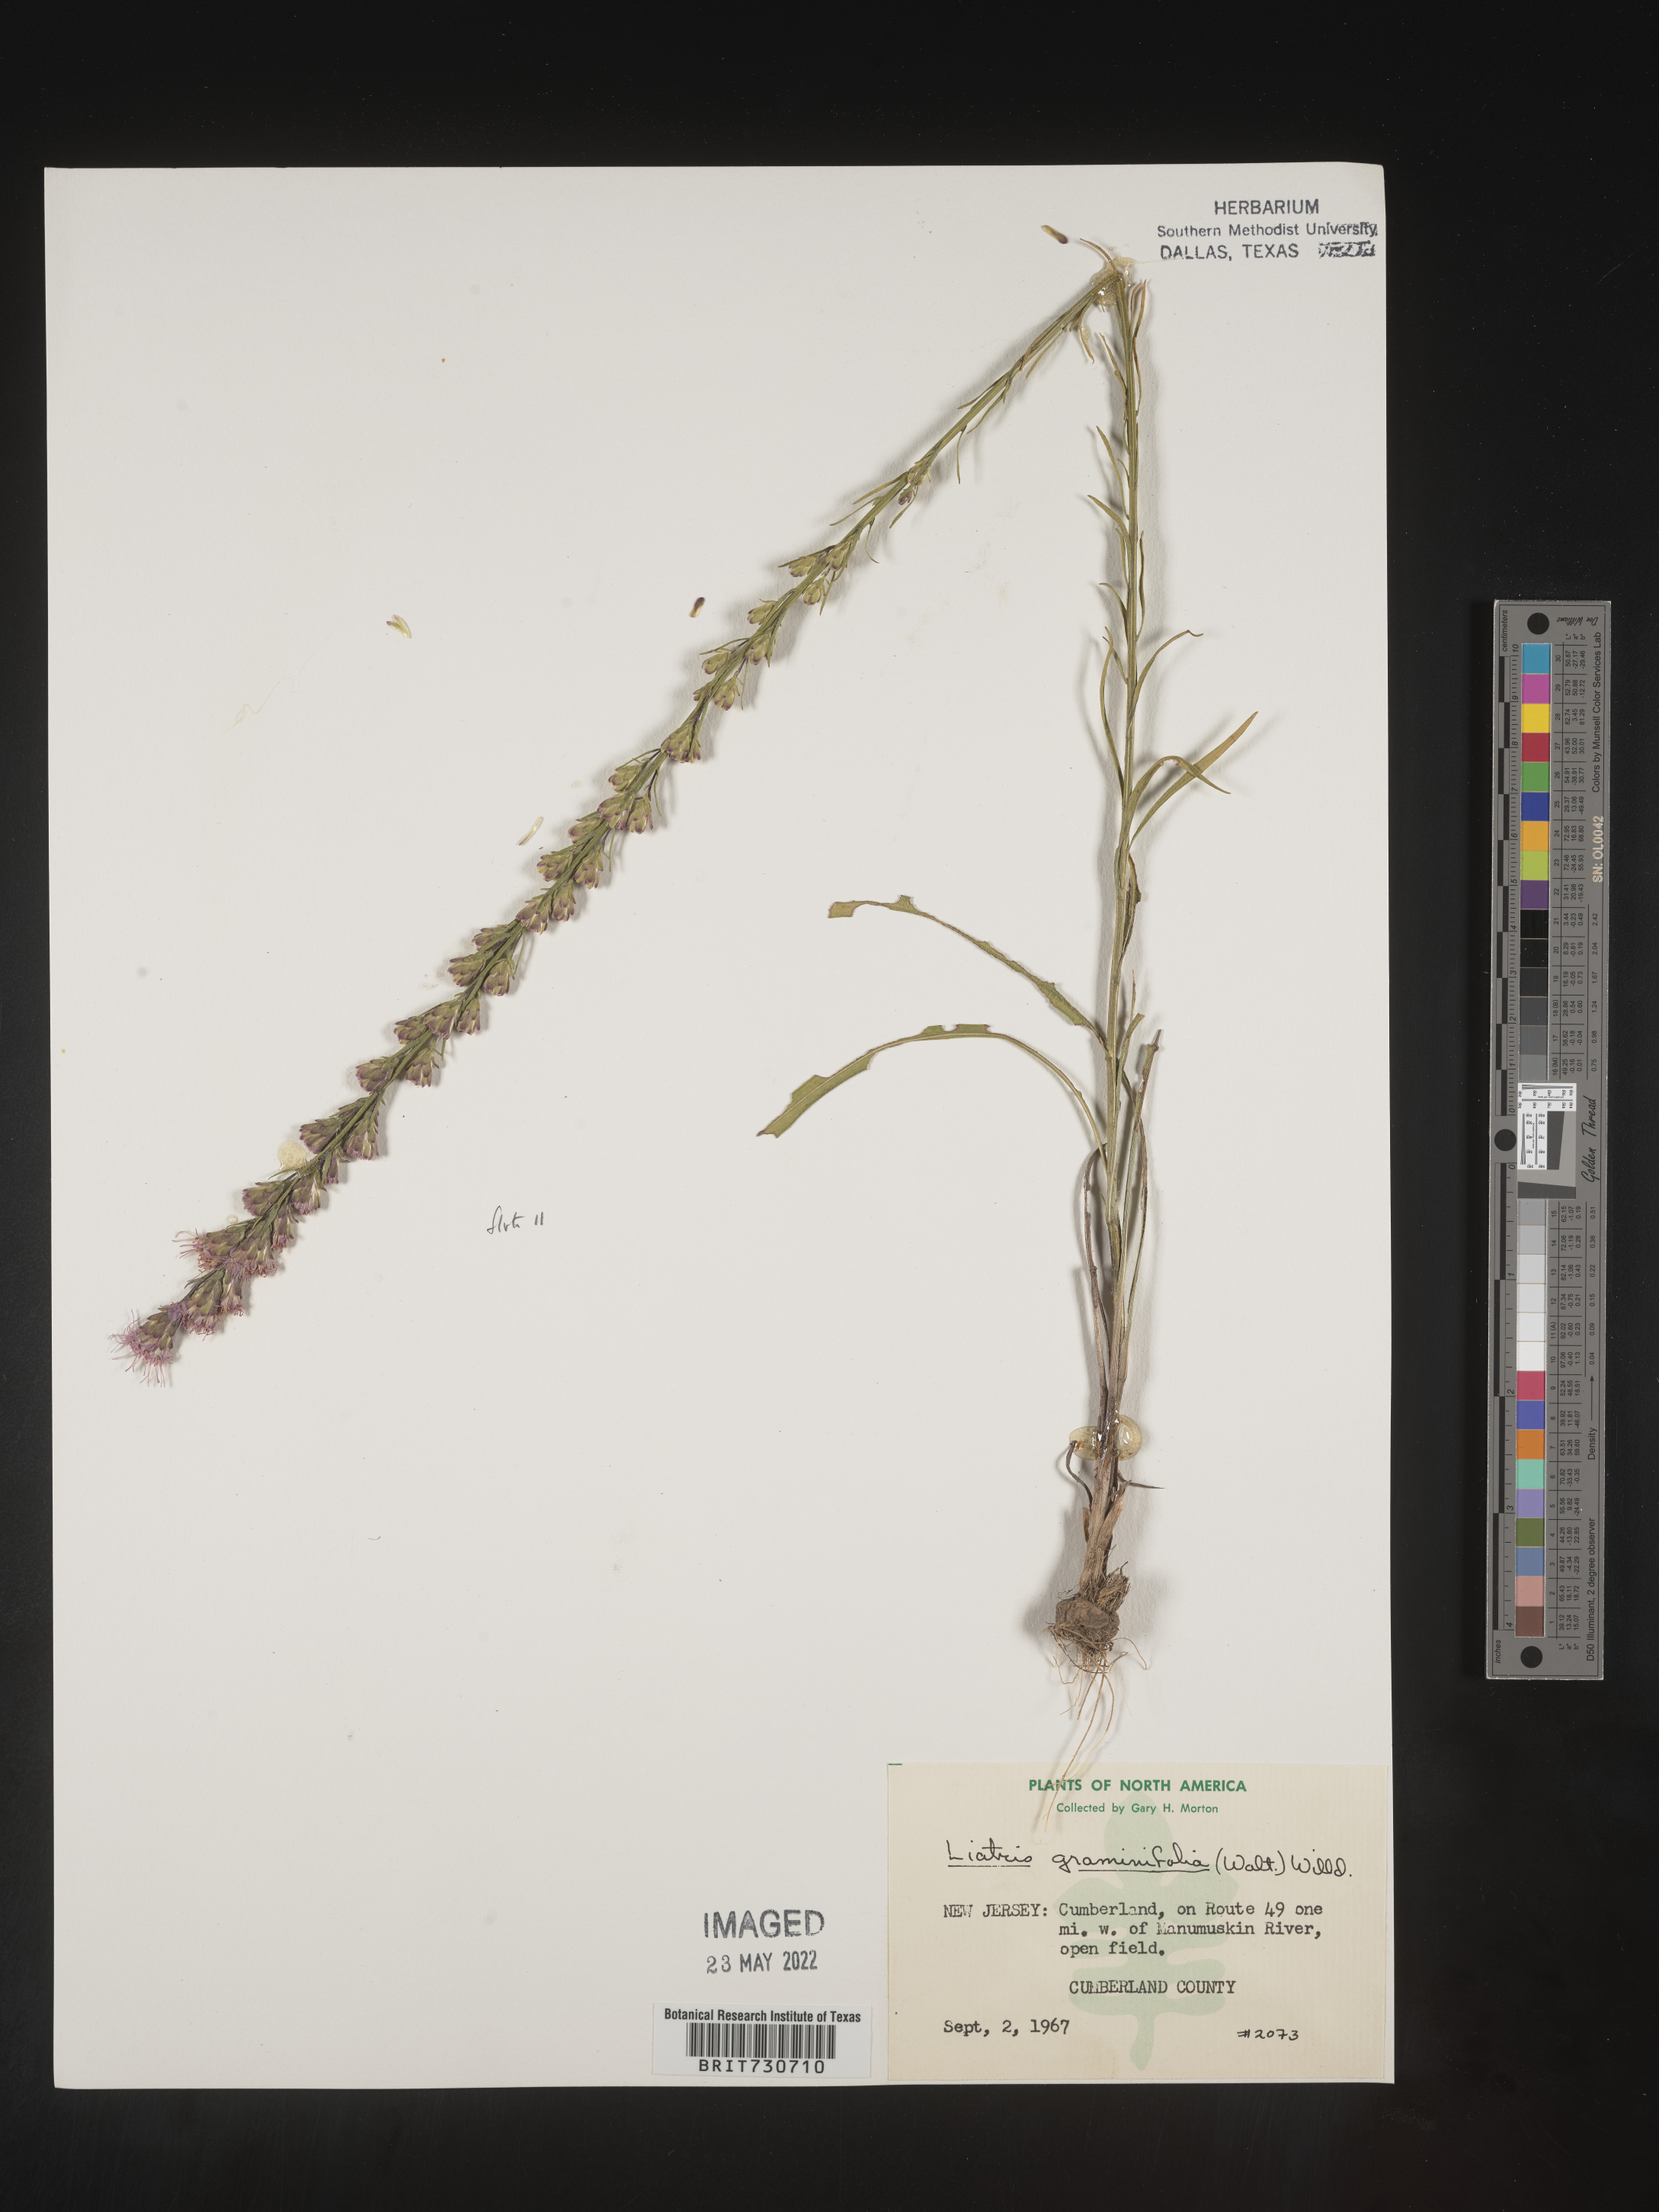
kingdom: Plantae
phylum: Tracheophyta
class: Magnoliopsida
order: Asterales
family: Asteraceae
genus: Liatris
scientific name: Liatris pilosa
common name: Grass-leaf gayfeather
